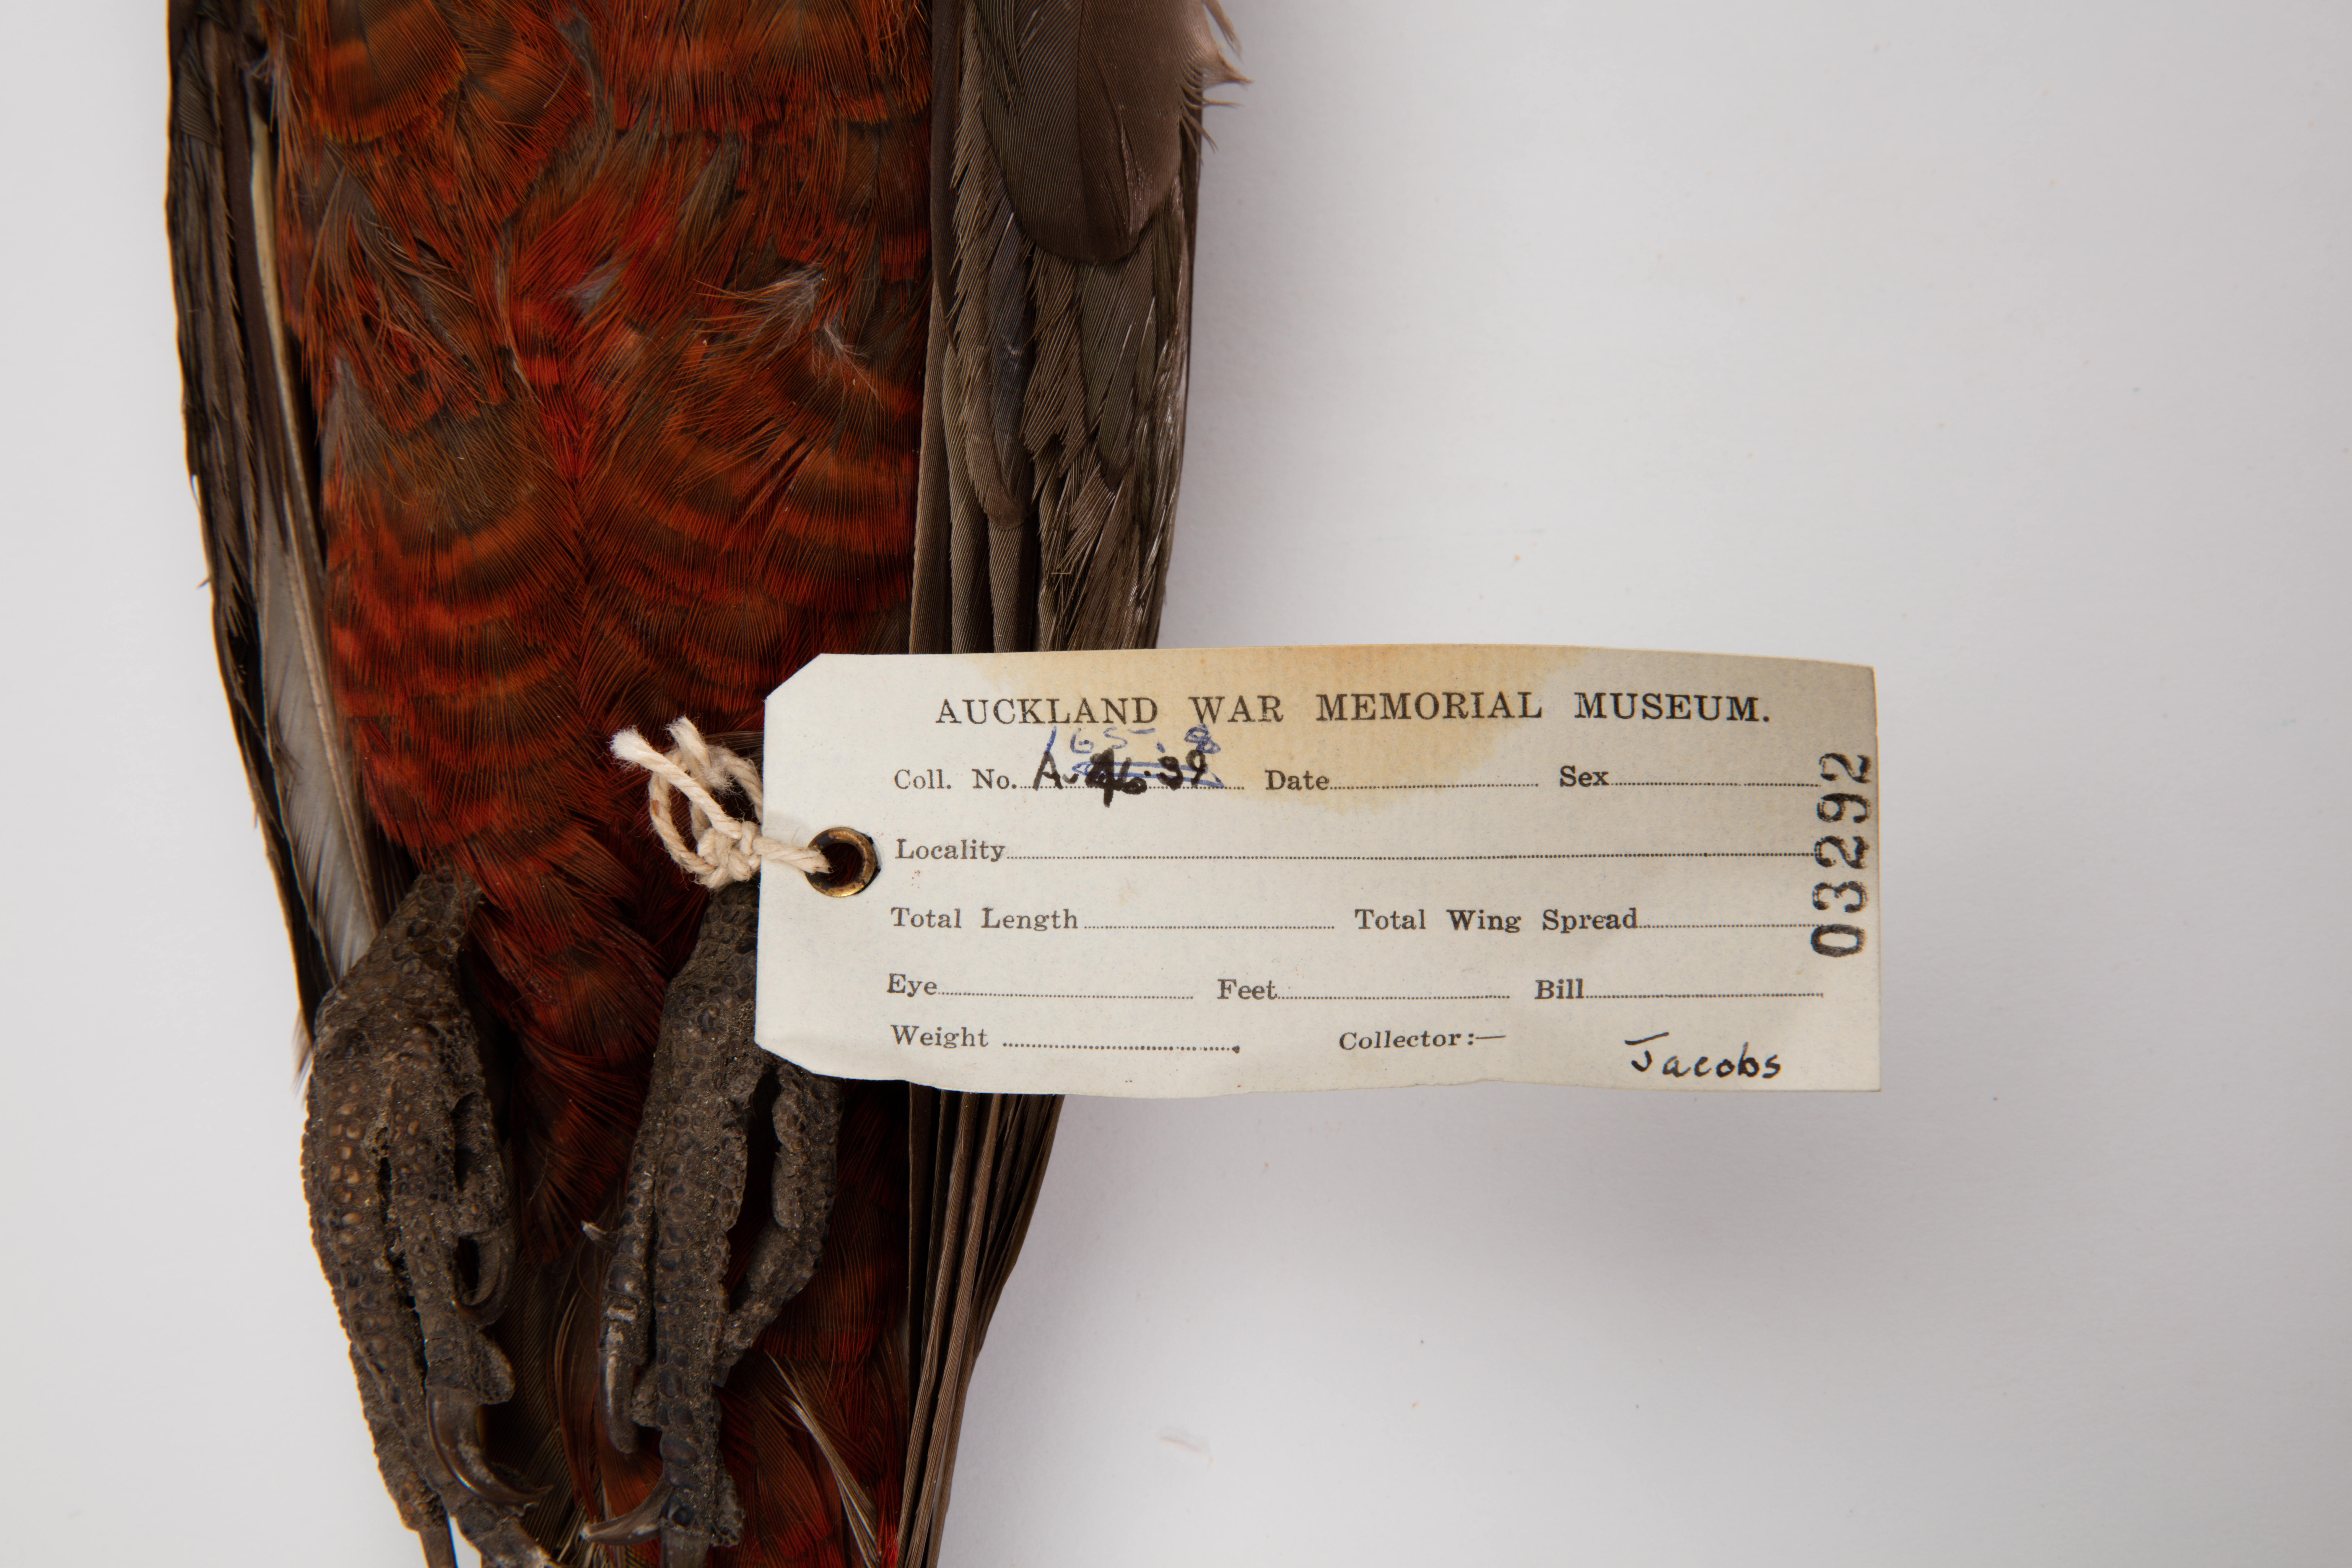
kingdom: Animalia
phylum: Chordata
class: Aves
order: Psittaciformes
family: Psittacidae
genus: Nestor
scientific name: Nestor meridionalis
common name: New zealand kaka
